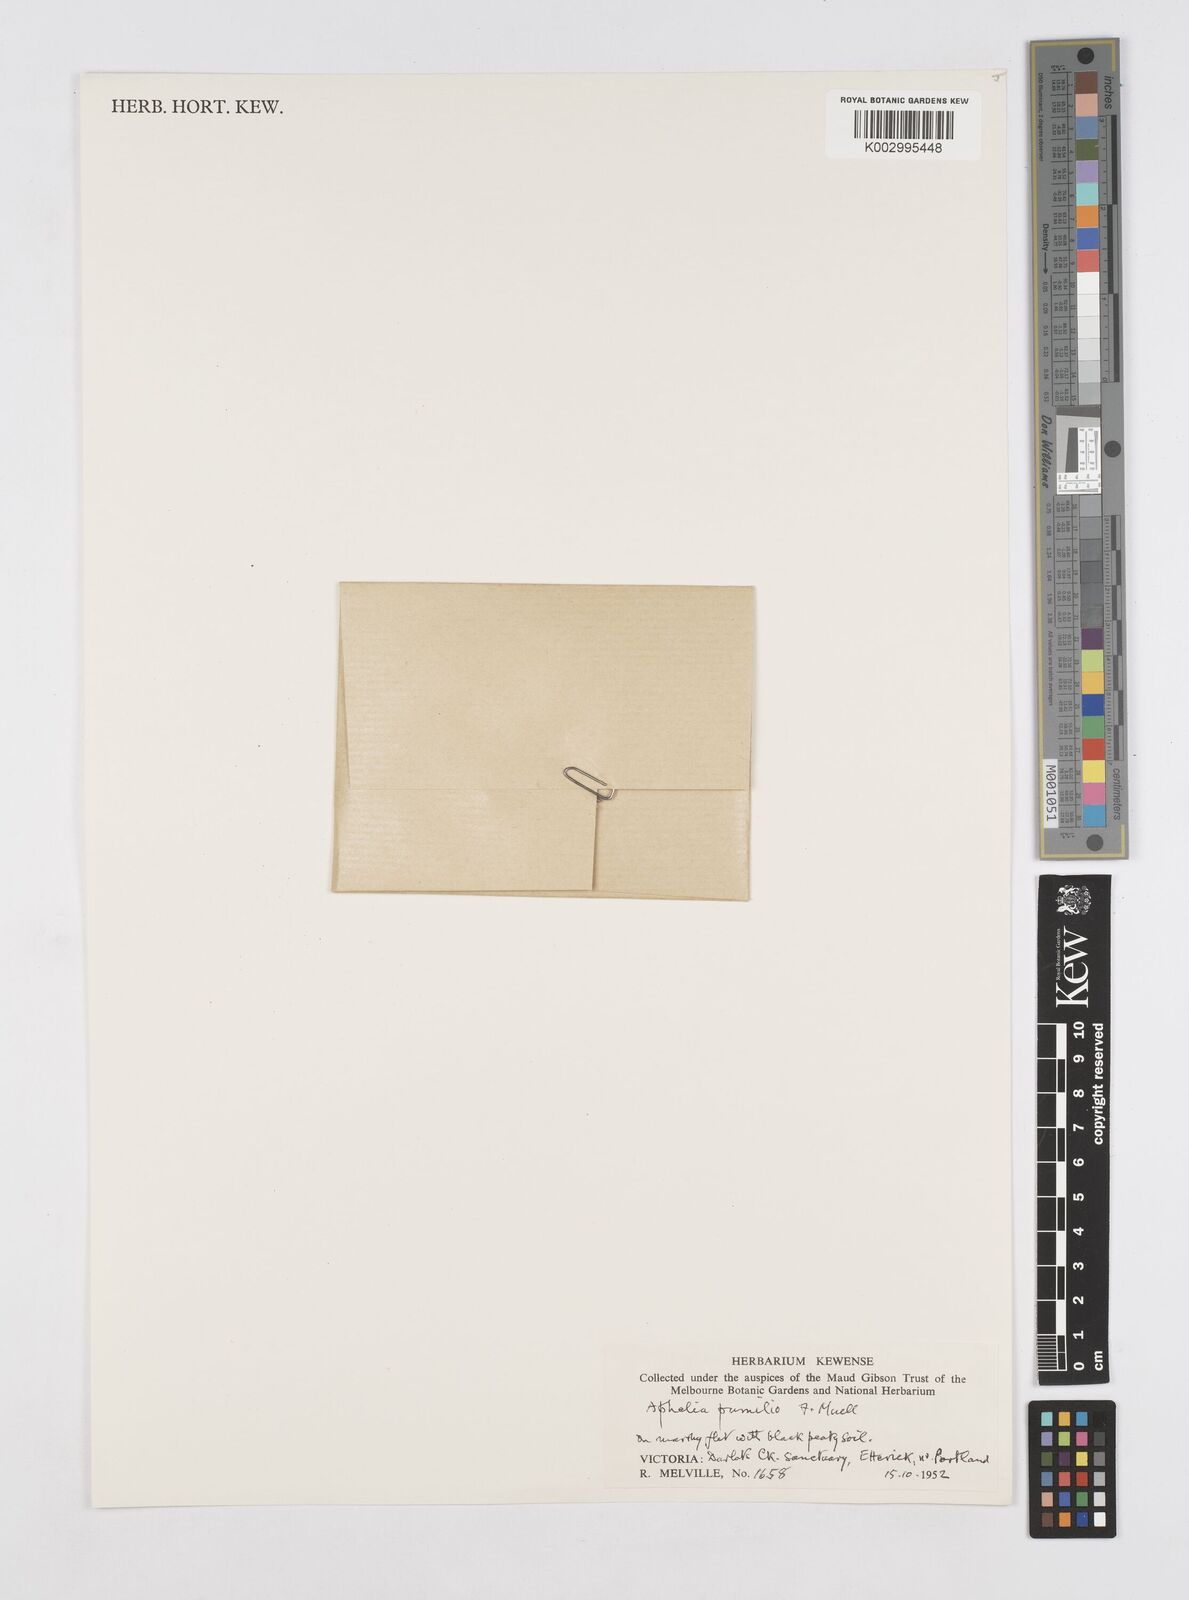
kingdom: Plantae
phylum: Tracheophyta
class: Liliopsida
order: Poales
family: Restionaceae
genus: Aphelia
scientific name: Aphelia pumilio
